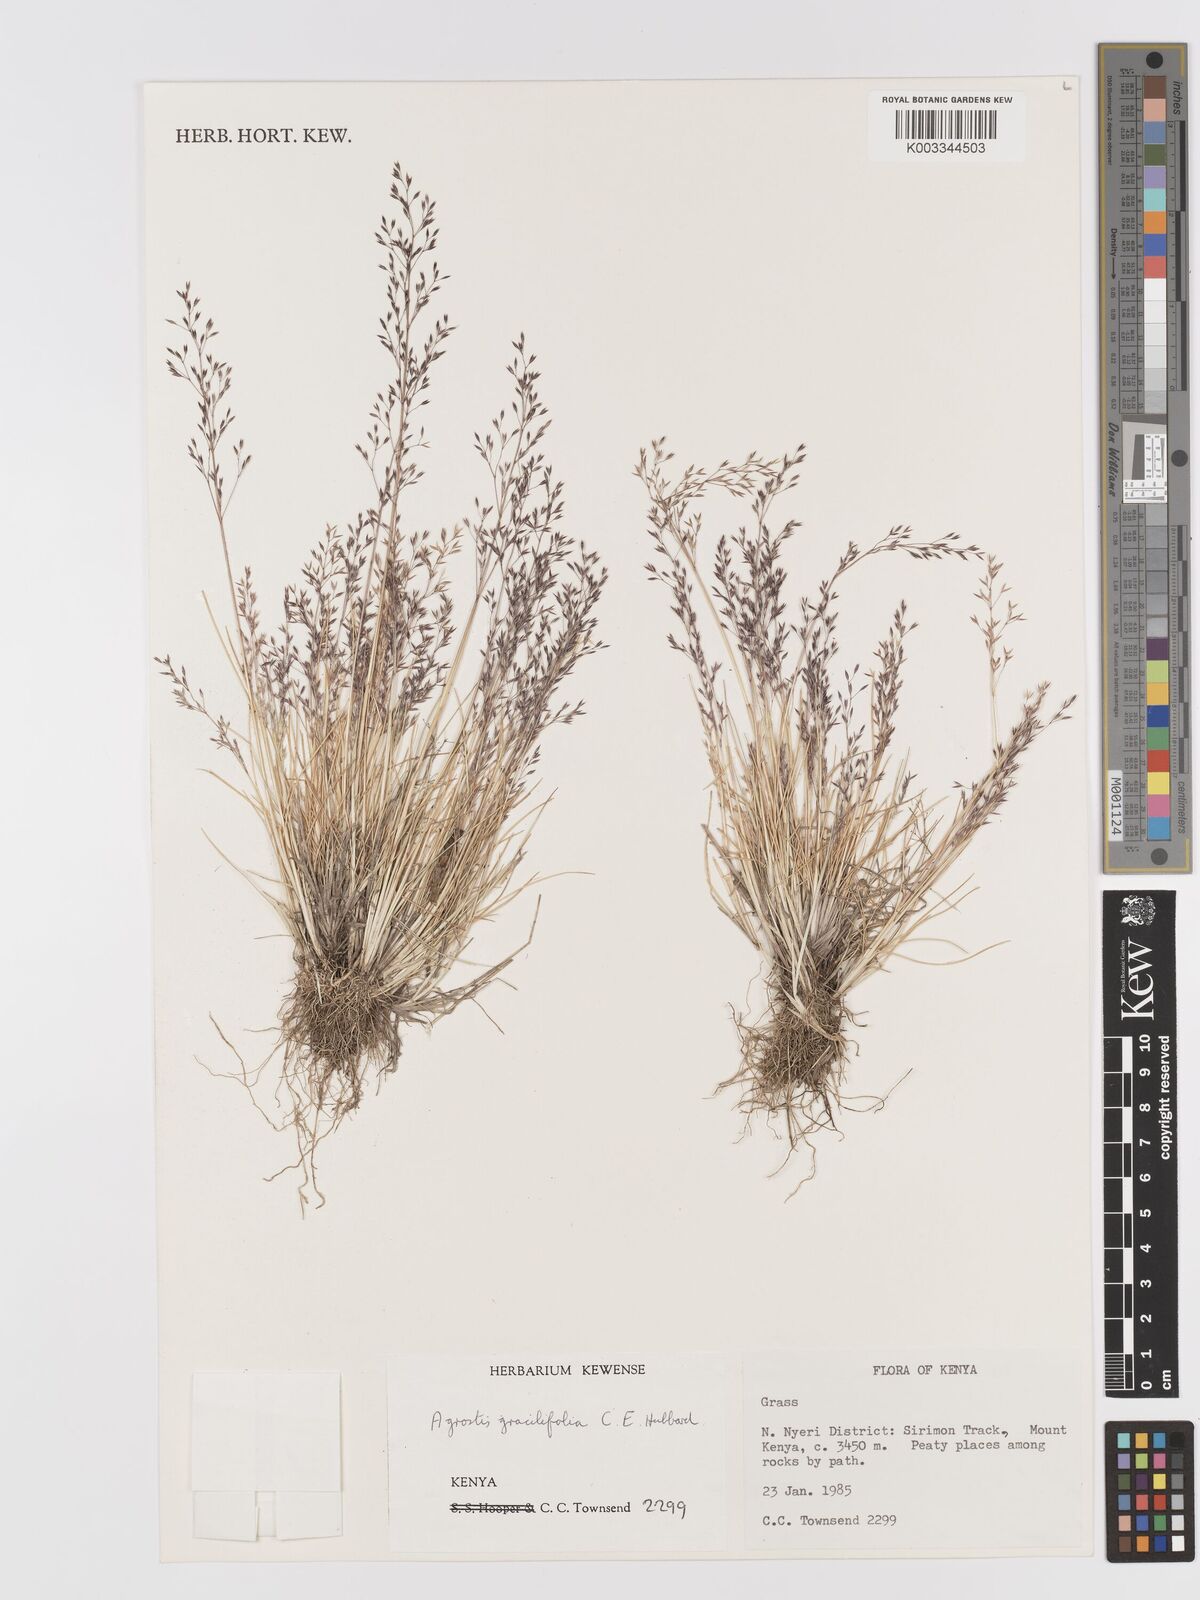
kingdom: Plantae
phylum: Tracheophyta
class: Liliopsida
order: Poales
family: Poaceae
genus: Agrostis
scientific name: Agrostis gracilifolia
